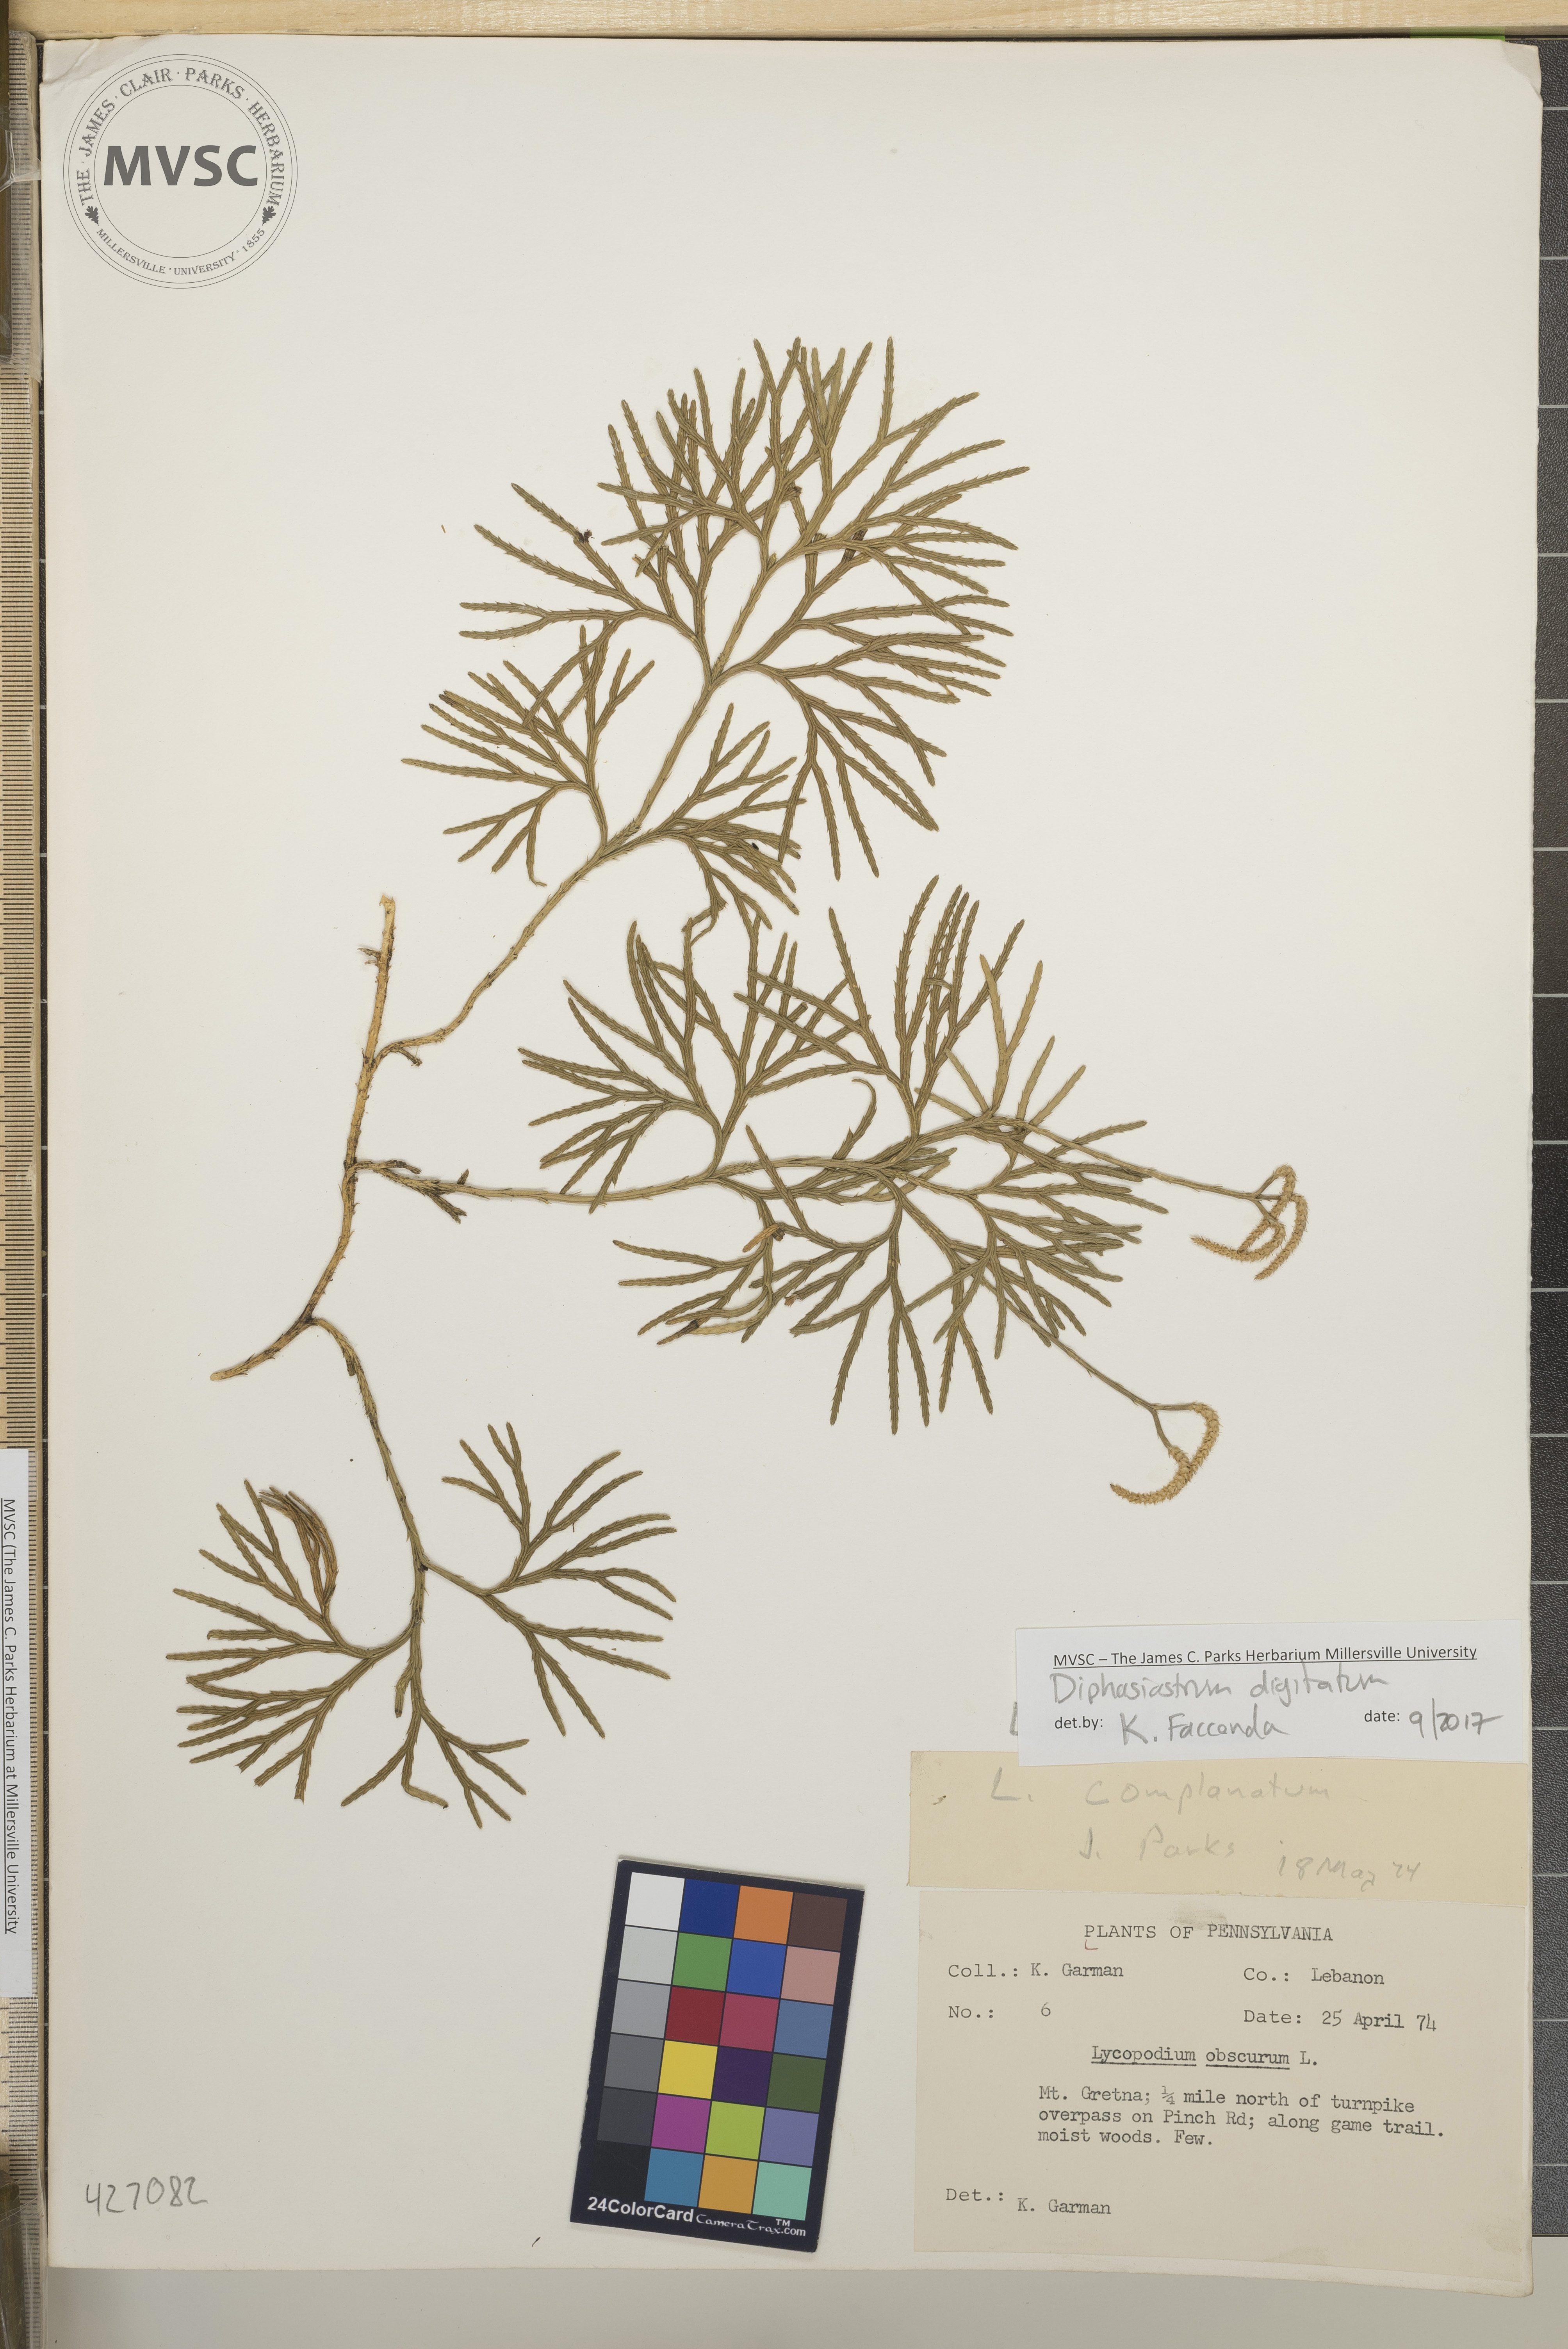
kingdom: Plantae
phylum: Tracheophyta
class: Lycopodiopsida
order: Lycopodiales
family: Lycopodiaceae
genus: Diphasiastrum
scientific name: Diphasiastrum digitatum
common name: Southern running-pine
